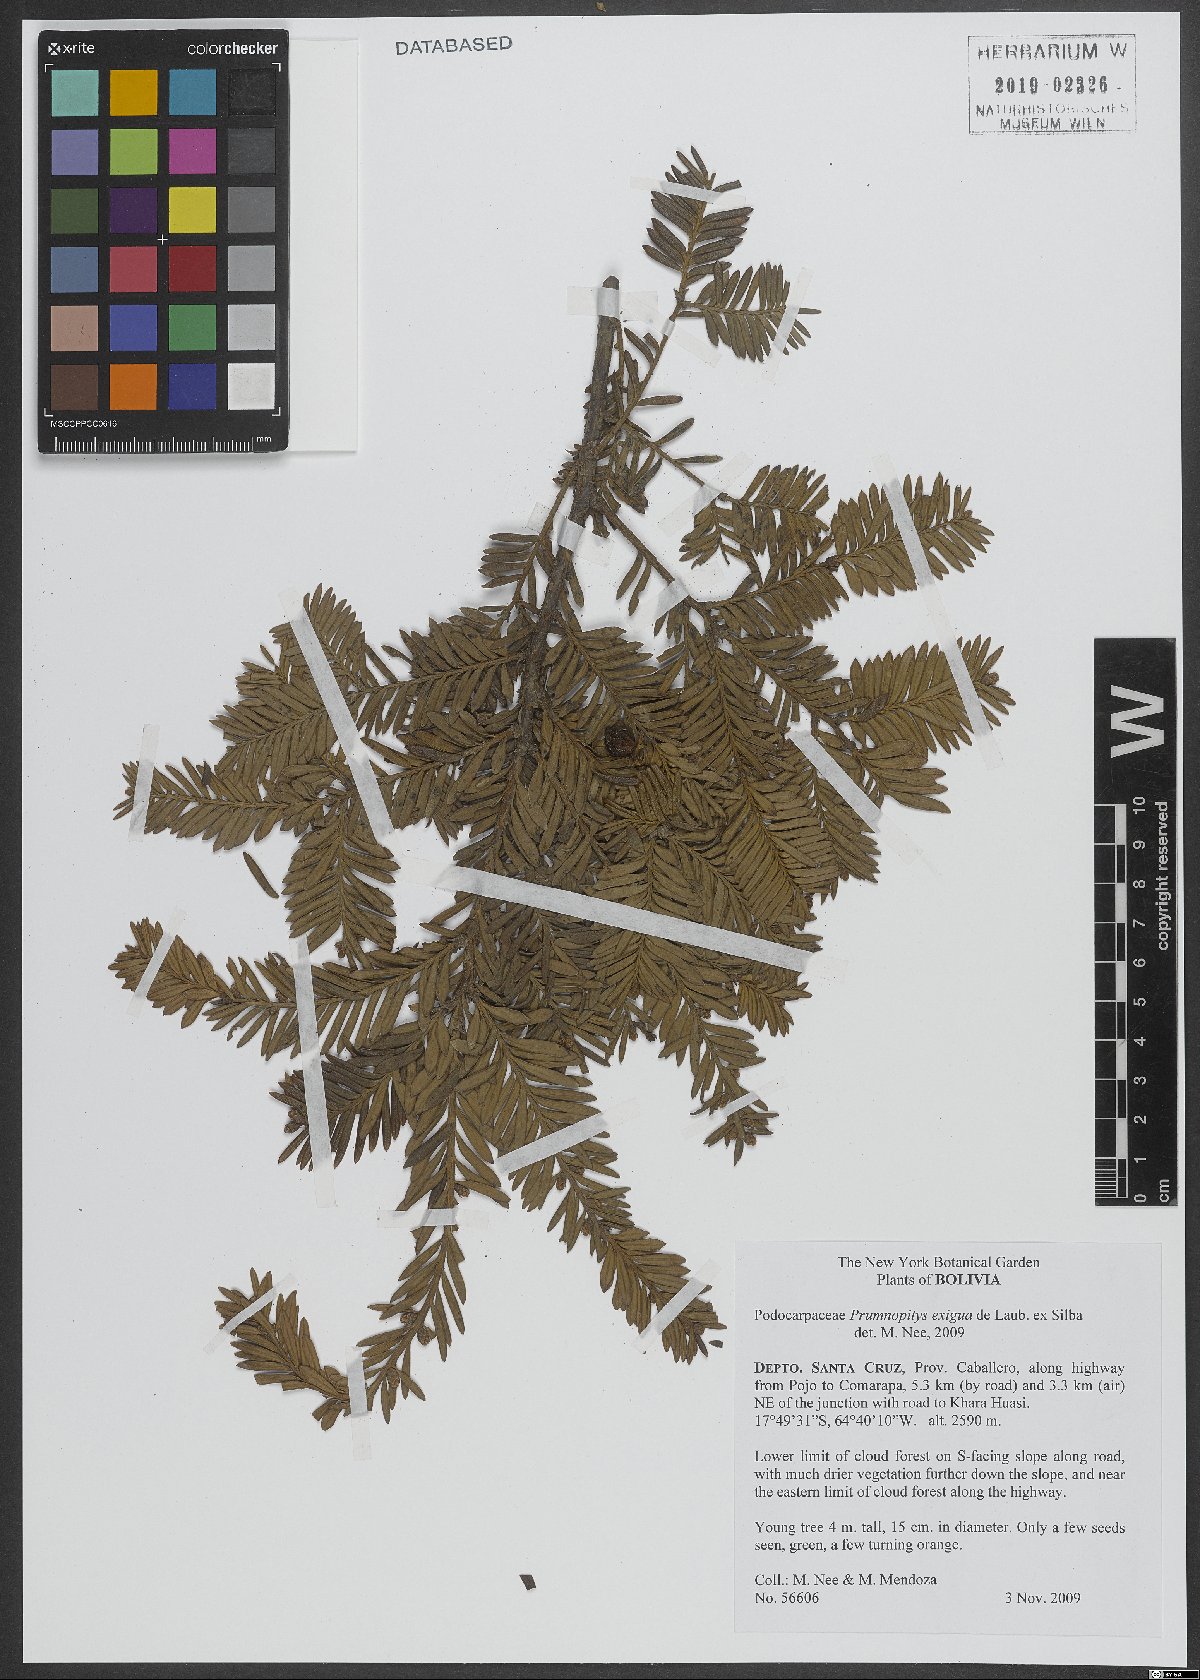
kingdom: Plantae
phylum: Tracheophyta
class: Pinopsida
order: Pinales
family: Podocarpaceae
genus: Pectinopitys
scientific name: Pectinopitys exigua
